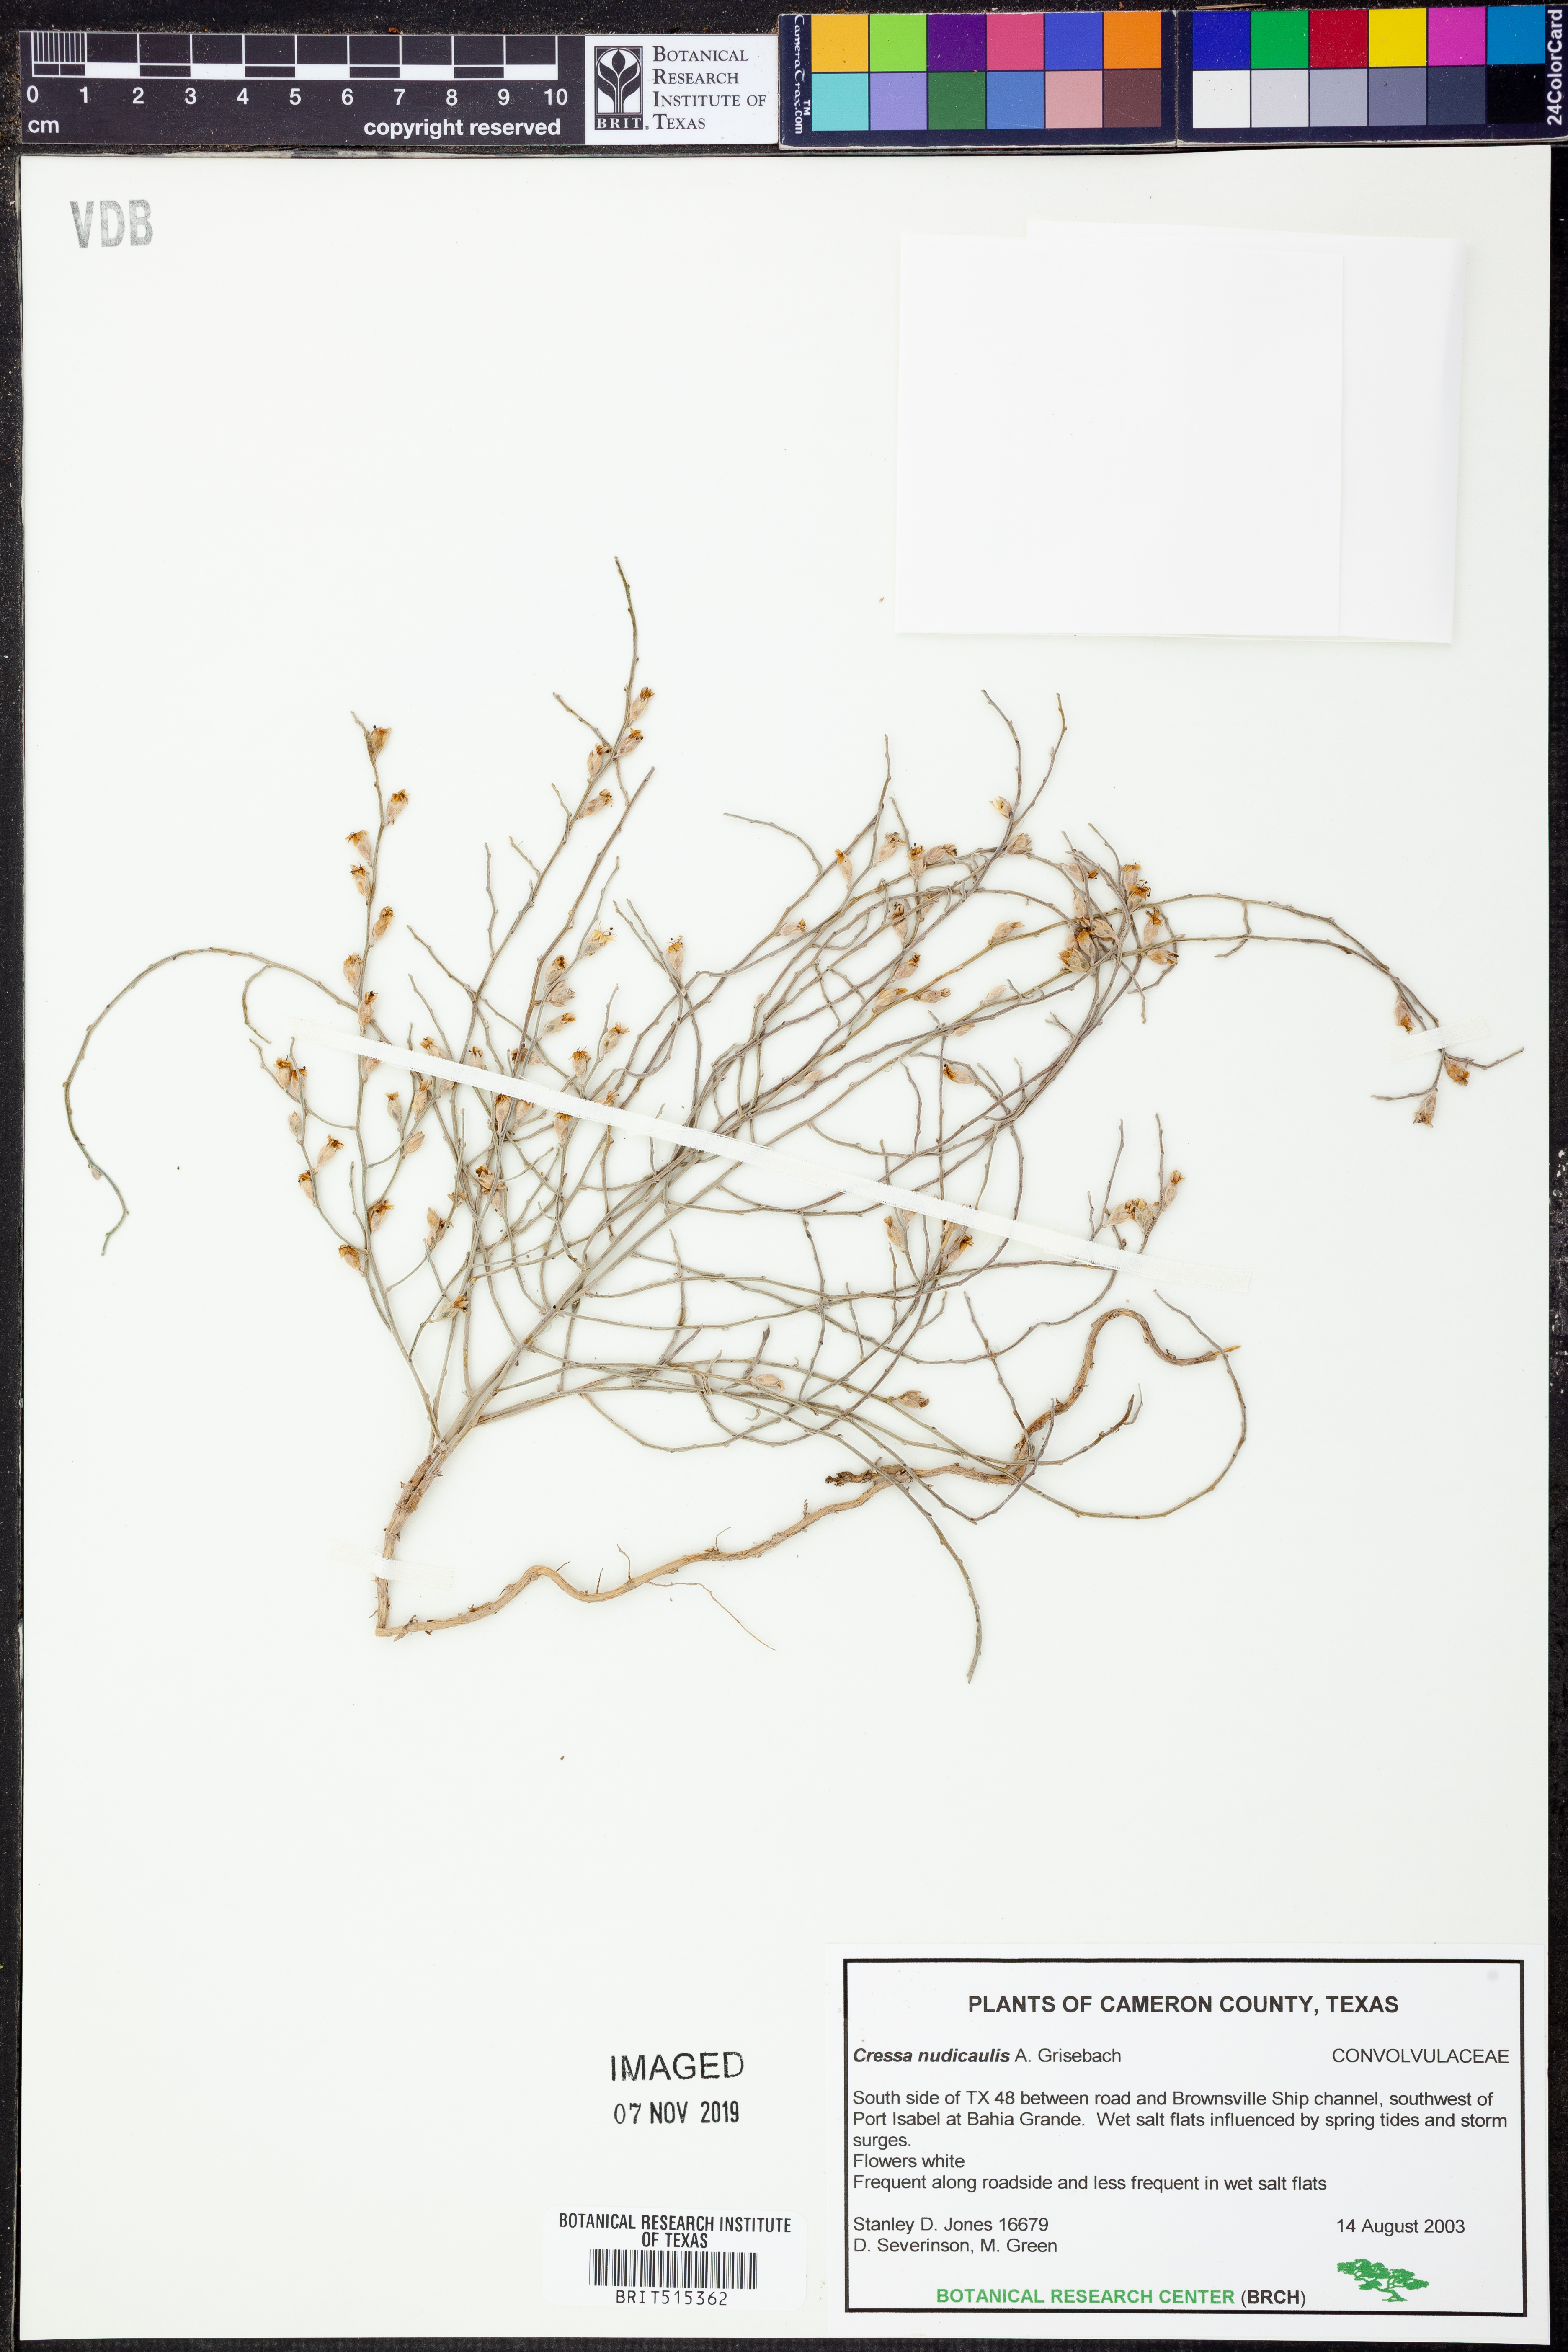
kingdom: Plantae
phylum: Tracheophyta
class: Magnoliopsida
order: Solanales
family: Convolvulaceae
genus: Cressa
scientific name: Cressa nudicaulis
